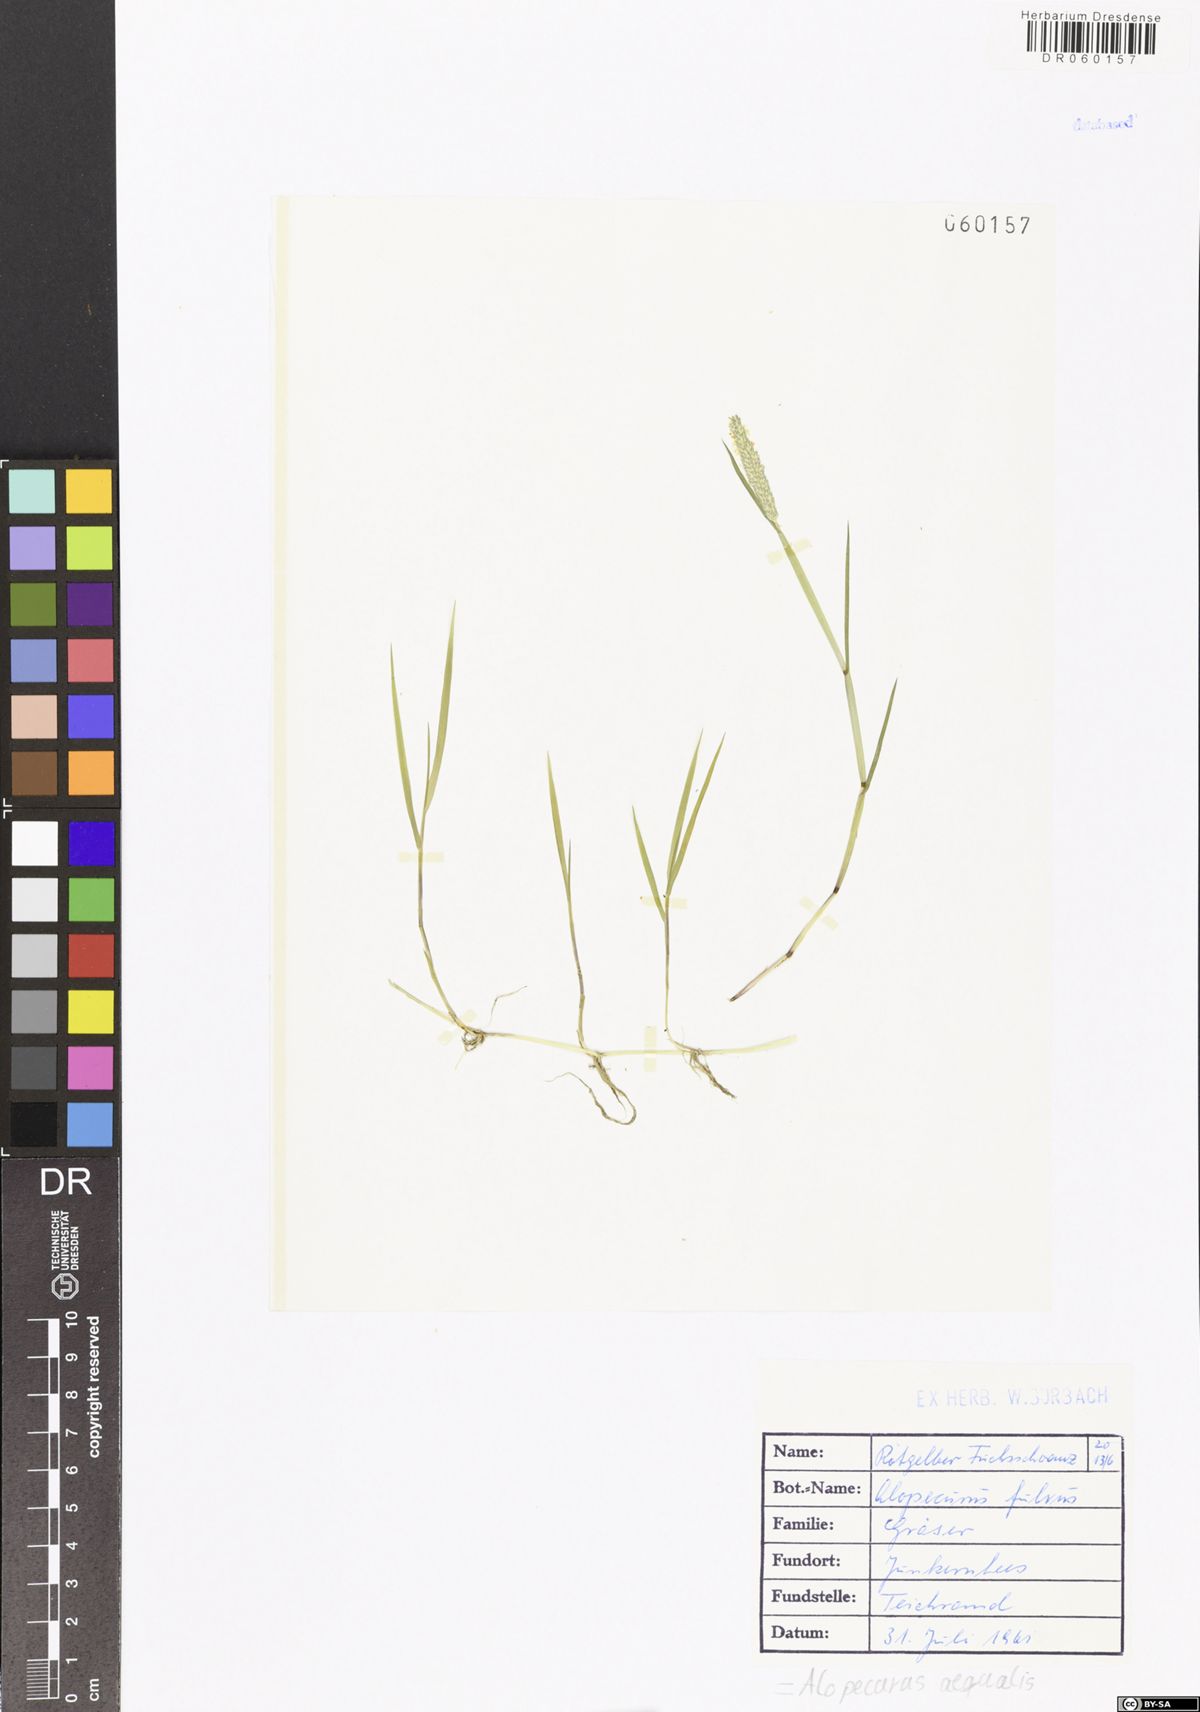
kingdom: Plantae
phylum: Tracheophyta
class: Liliopsida
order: Poales
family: Poaceae
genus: Alopecurus
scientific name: Alopecurus aequalis
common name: Orange foxtail
